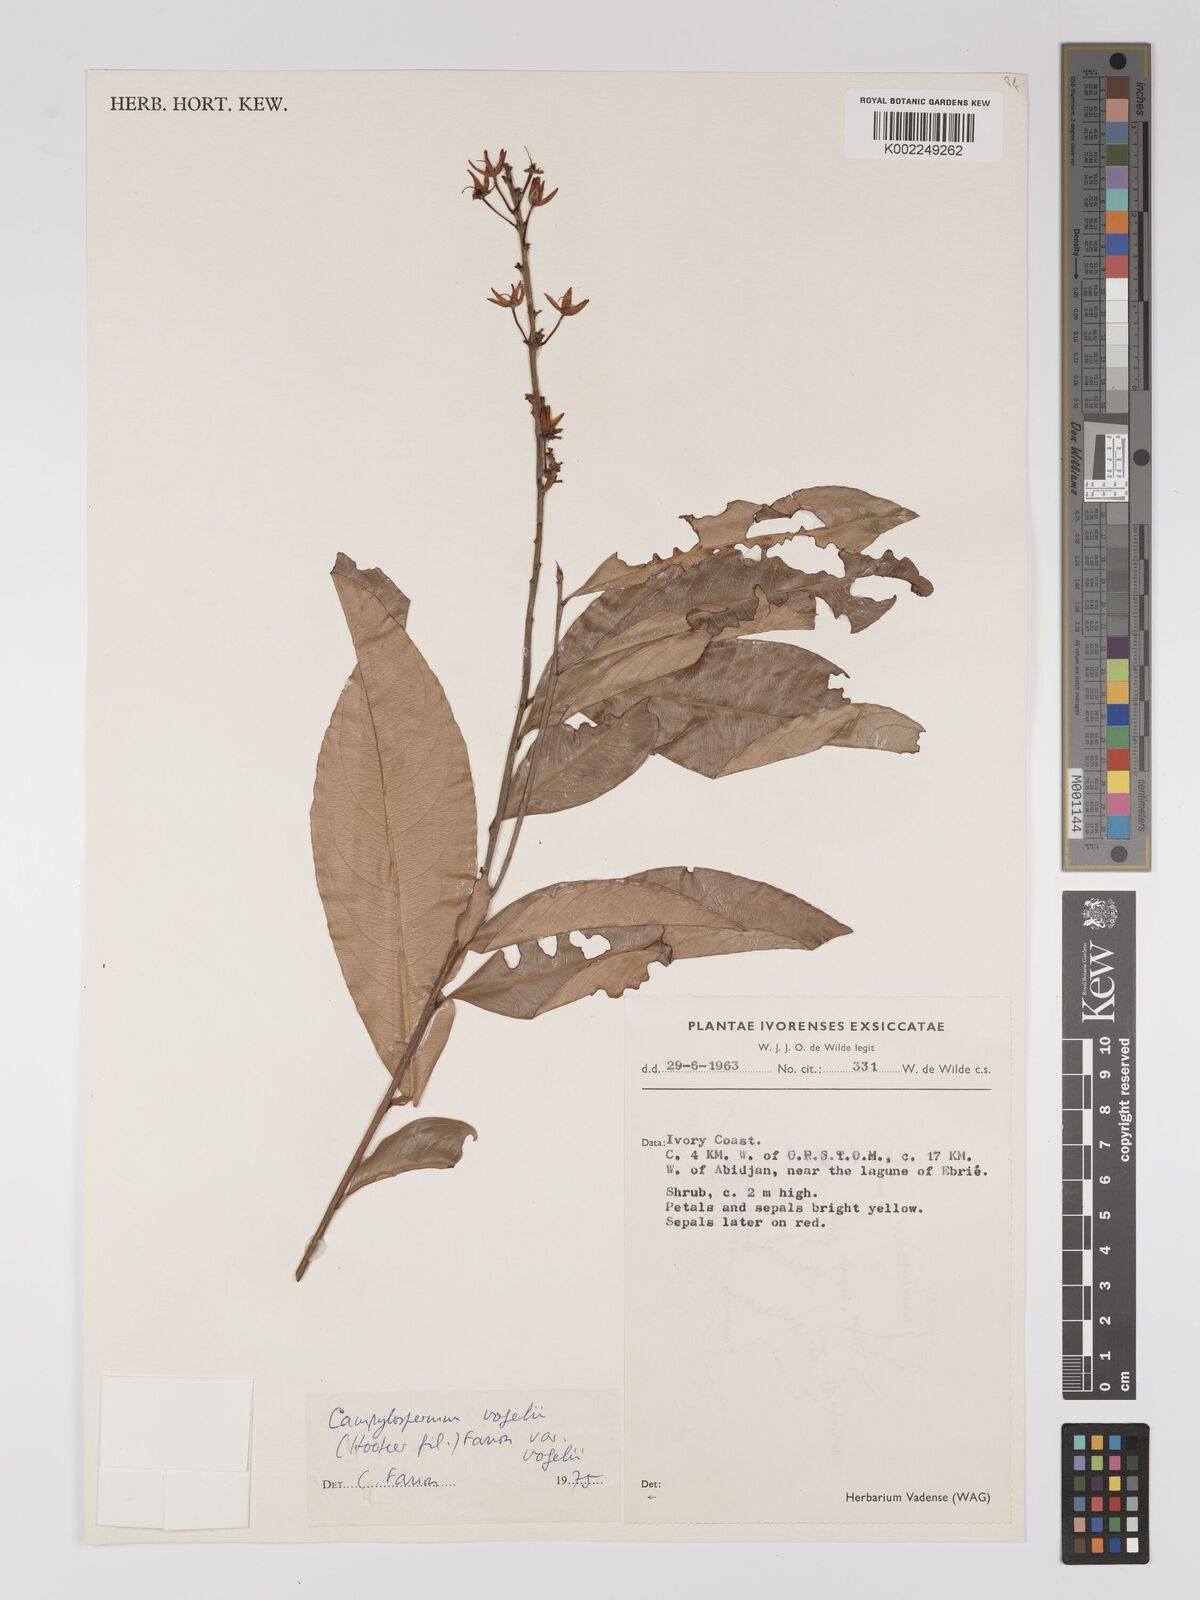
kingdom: Plantae
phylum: Tracheophyta
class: Magnoliopsida
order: Malpighiales
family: Ochnaceae
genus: Campylospermum
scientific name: Campylospermum vogelii
